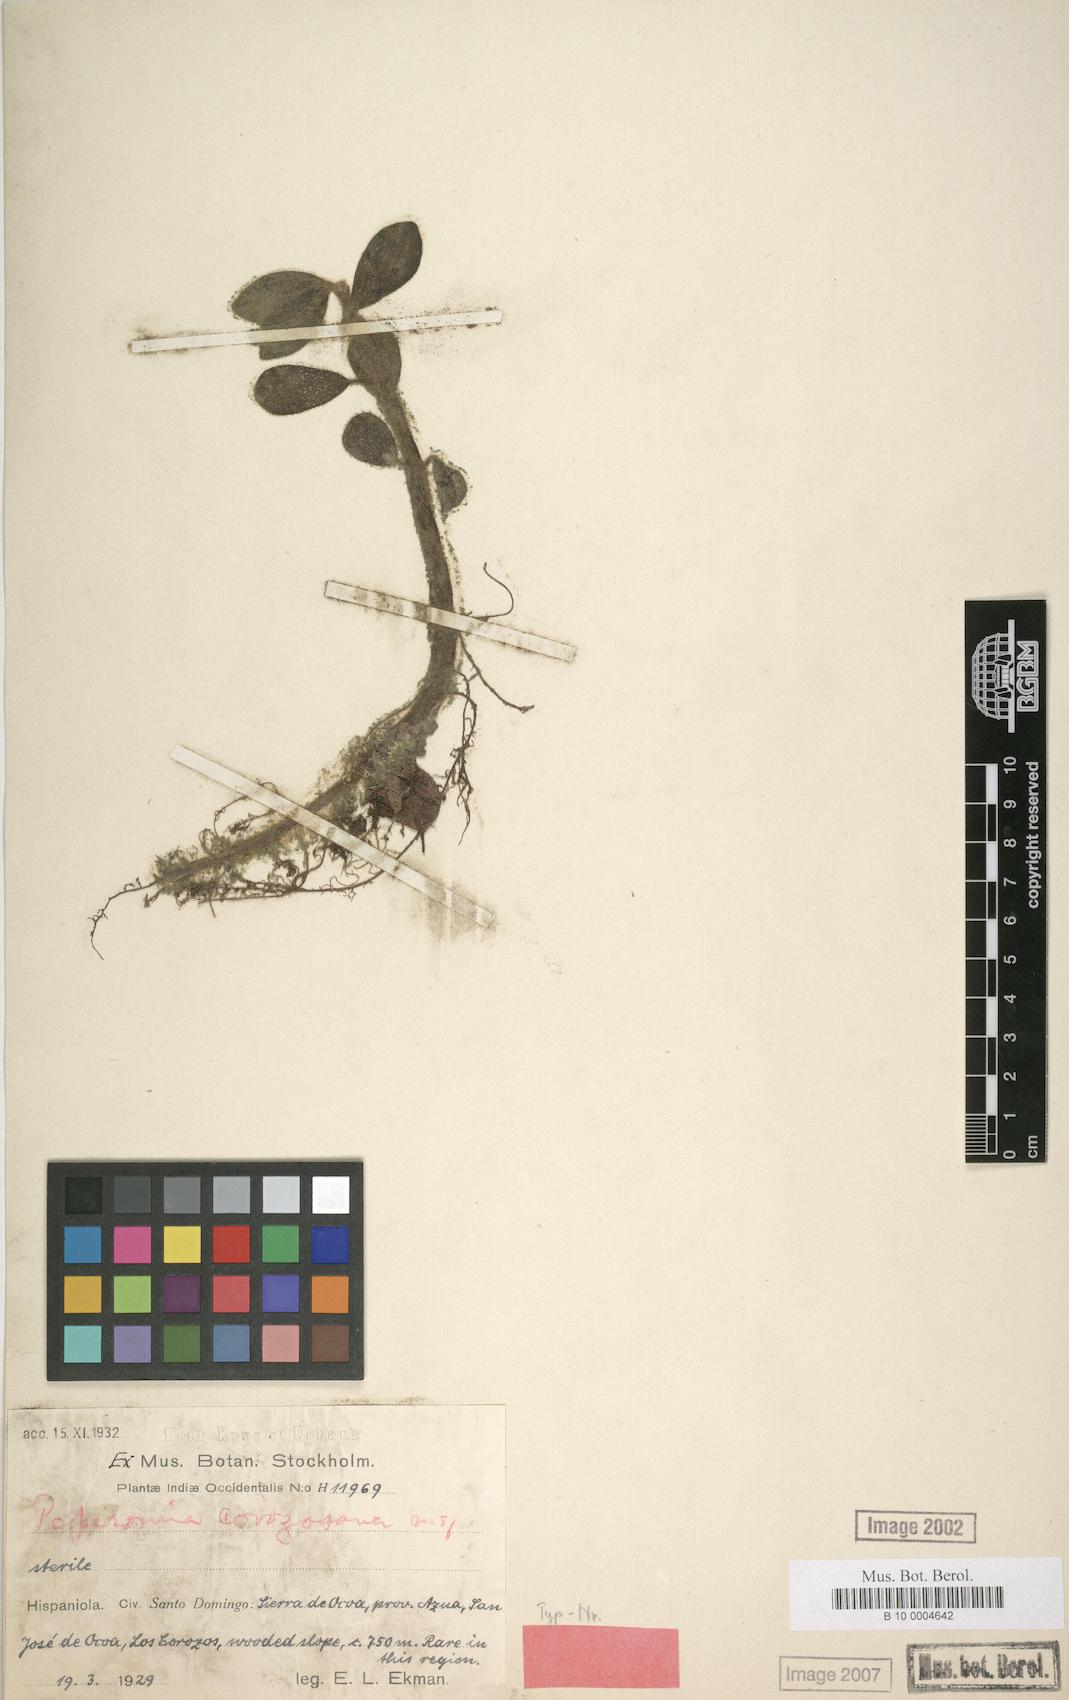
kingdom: Plantae
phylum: Tracheophyta
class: Magnoliopsida
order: Piperales
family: Piperaceae
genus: Peperomia
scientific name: Peperomia san-carlosiana
